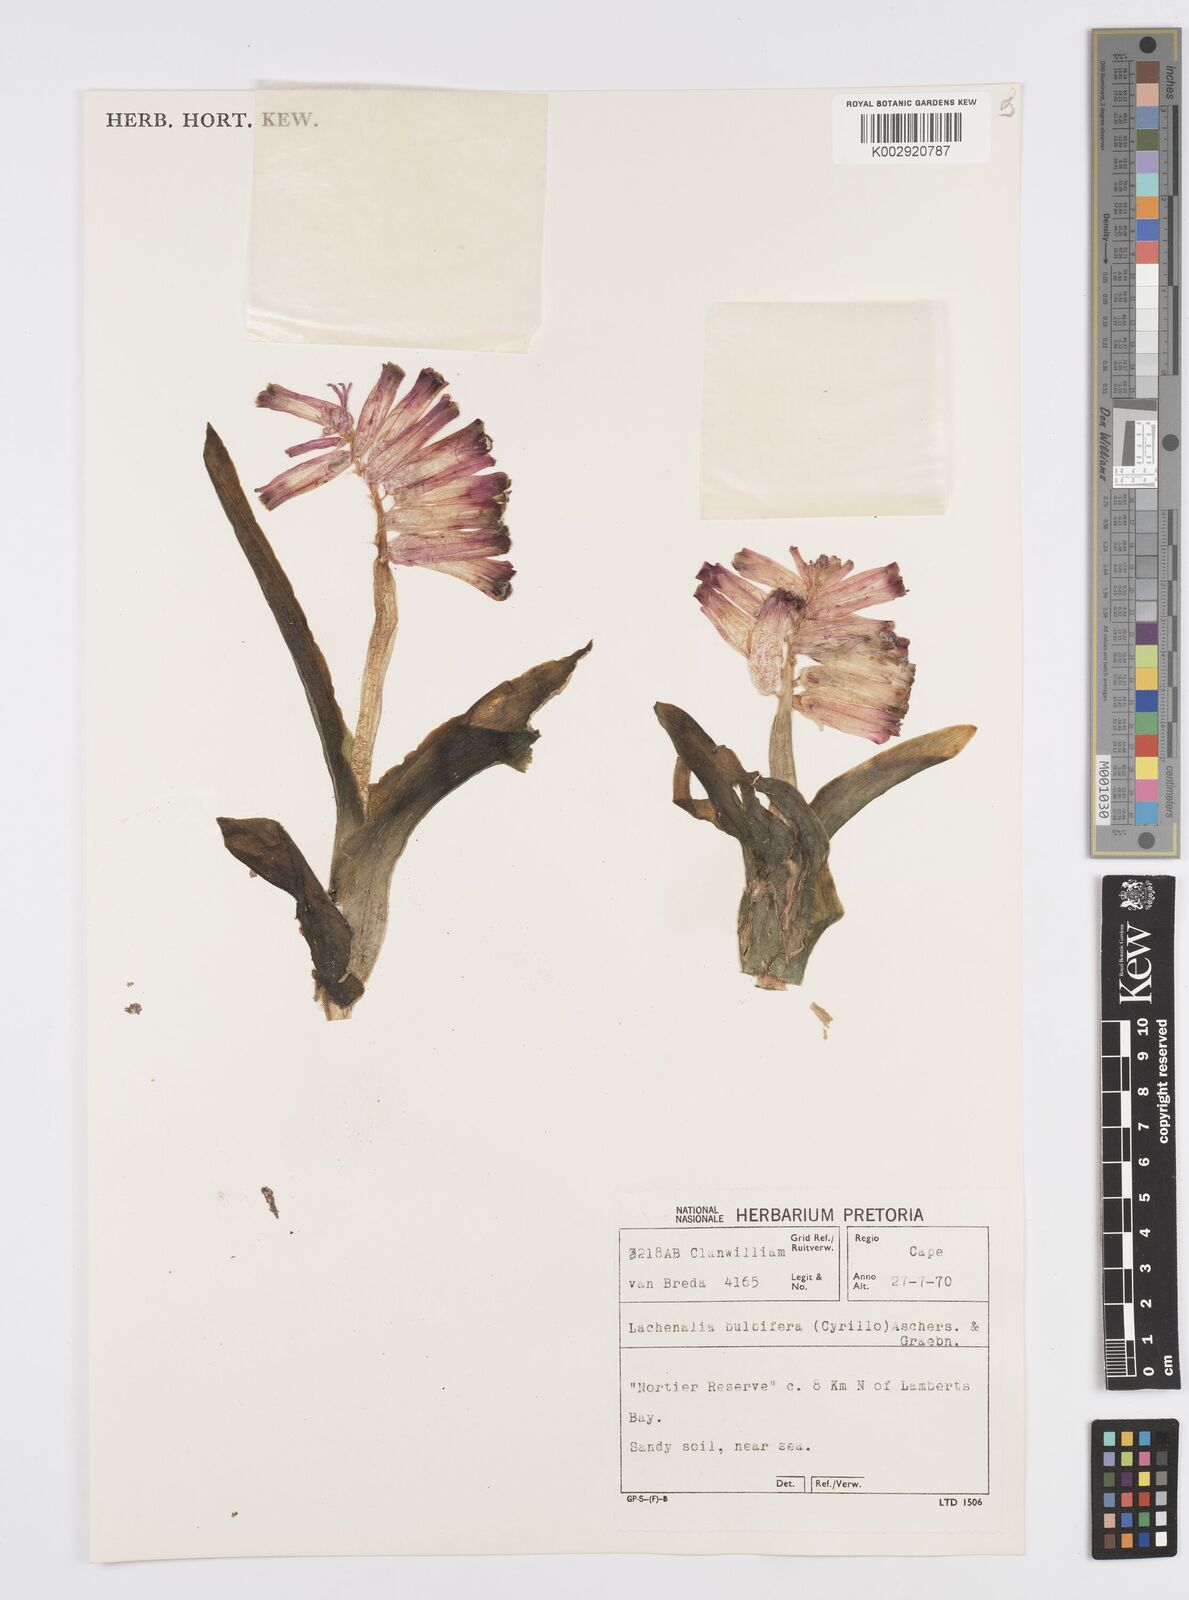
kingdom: Plantae
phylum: Tracheophyta
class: Liliopsida
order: Asparagales
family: Asparagaceae
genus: Lachenalia
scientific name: Lachenalia bulbifera
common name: Red lachenalia
